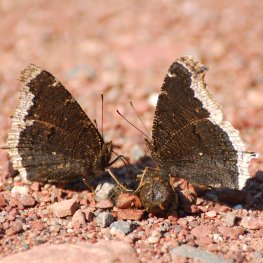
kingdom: Animalia
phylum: Arthropoda
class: Insecta
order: Lepidoptera
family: Nymphalidae
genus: Nymphalis
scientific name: Nymphalis antiopa
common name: Mourning Cloak
